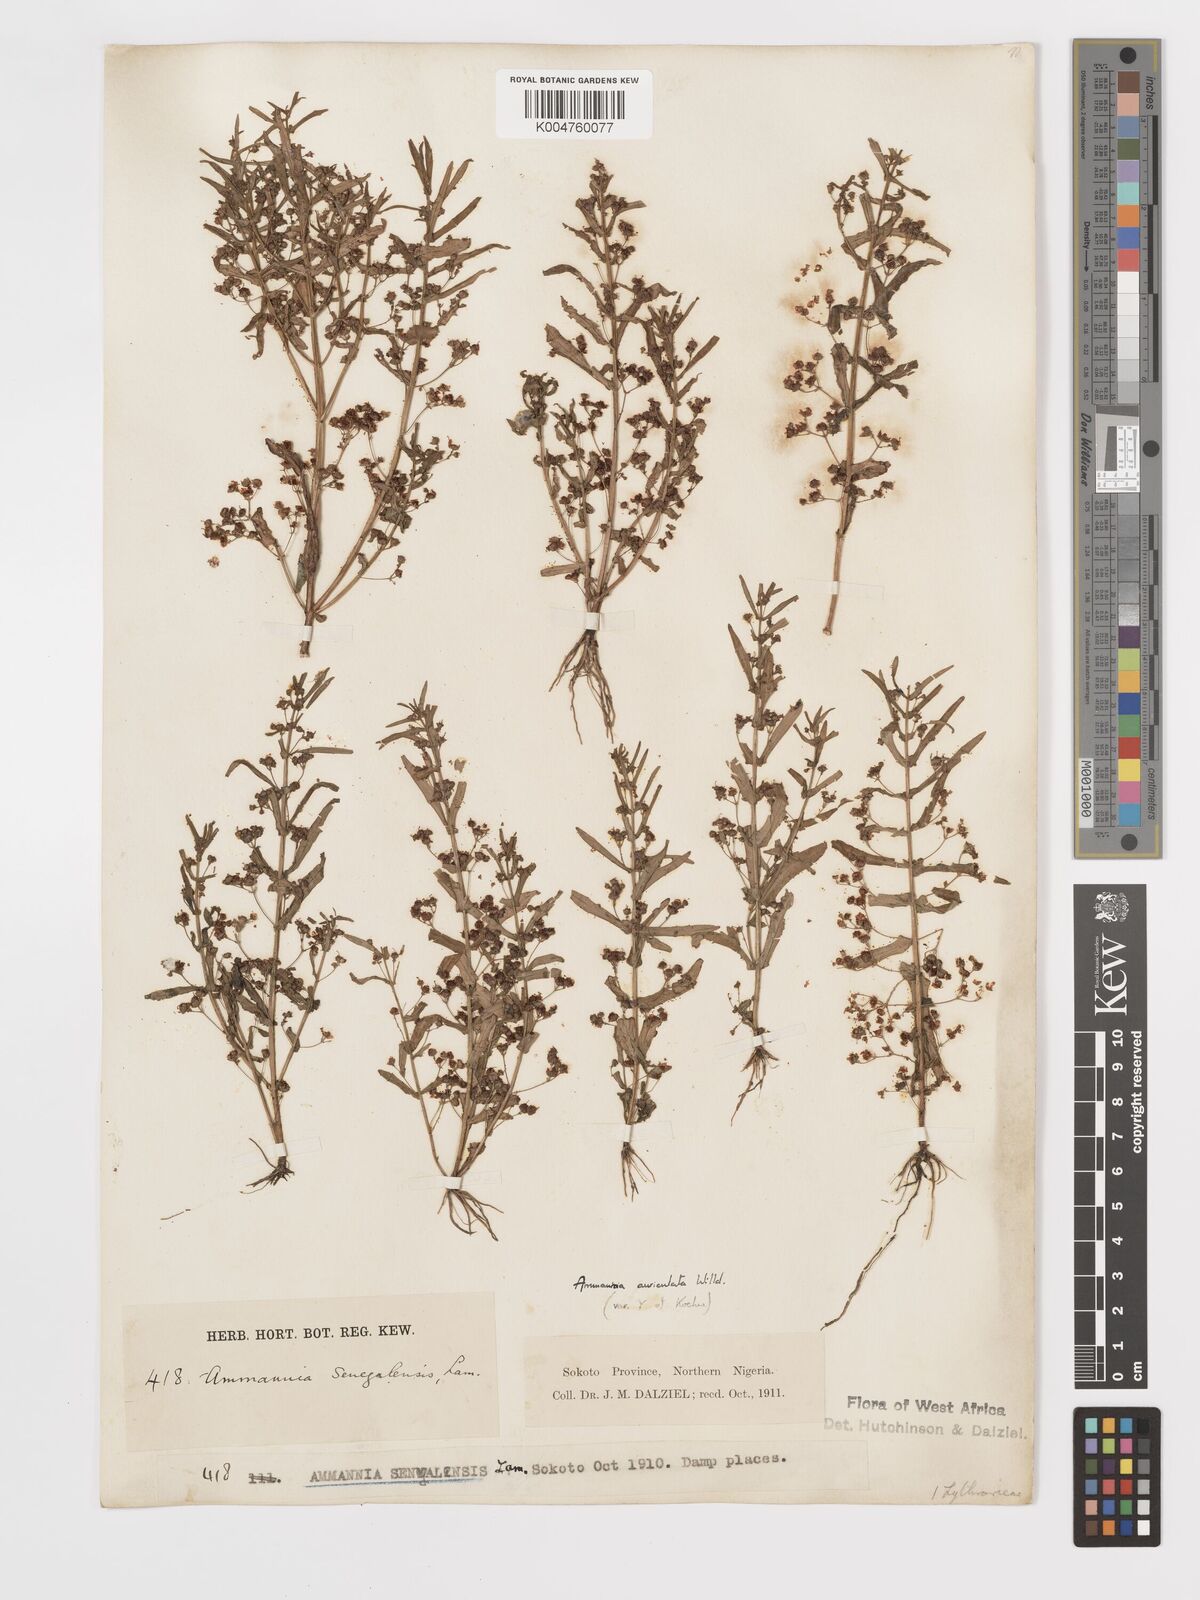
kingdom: Plantae
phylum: Tracheophyta
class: Magnoliopsida
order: Myrtales
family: Lythraceae
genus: Ammannia
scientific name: Ammannia auriculata
